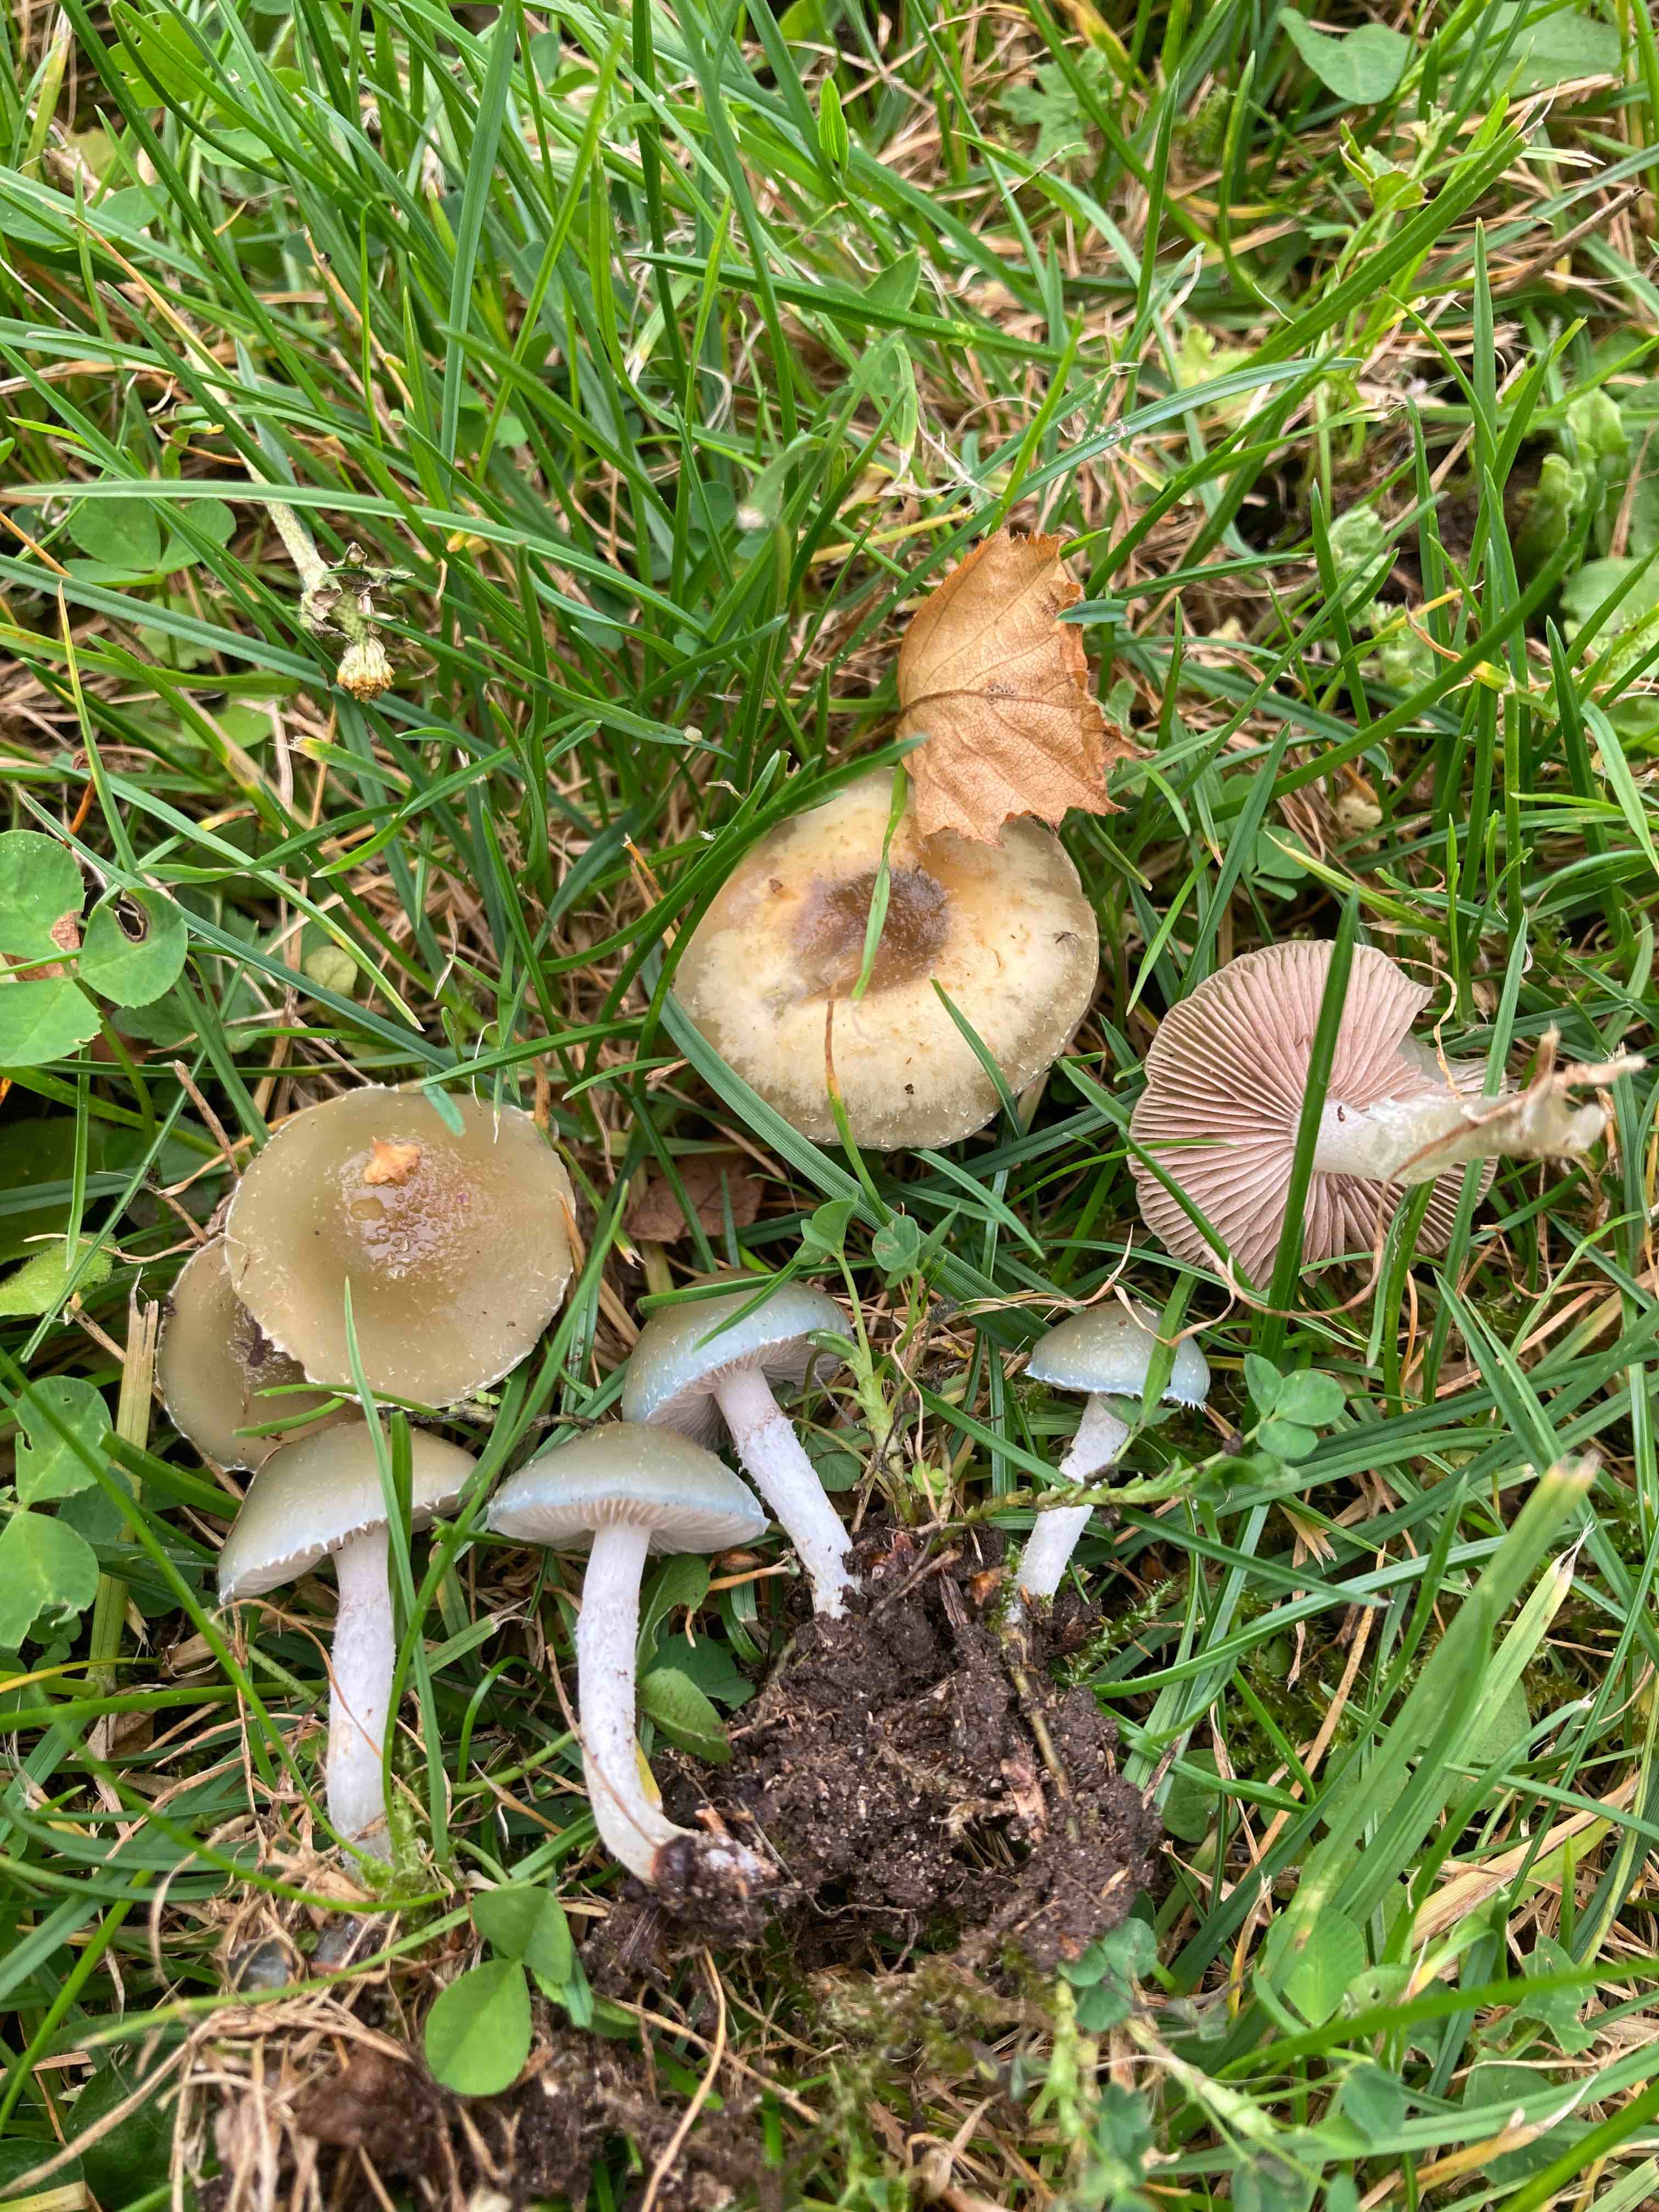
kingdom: Fungi
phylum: Basidiomycota
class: Agaricomycetes
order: Agaricales
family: Strophariaceae
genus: Stropharia
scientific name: Stropharia cyanea
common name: blågrøn bredblad
